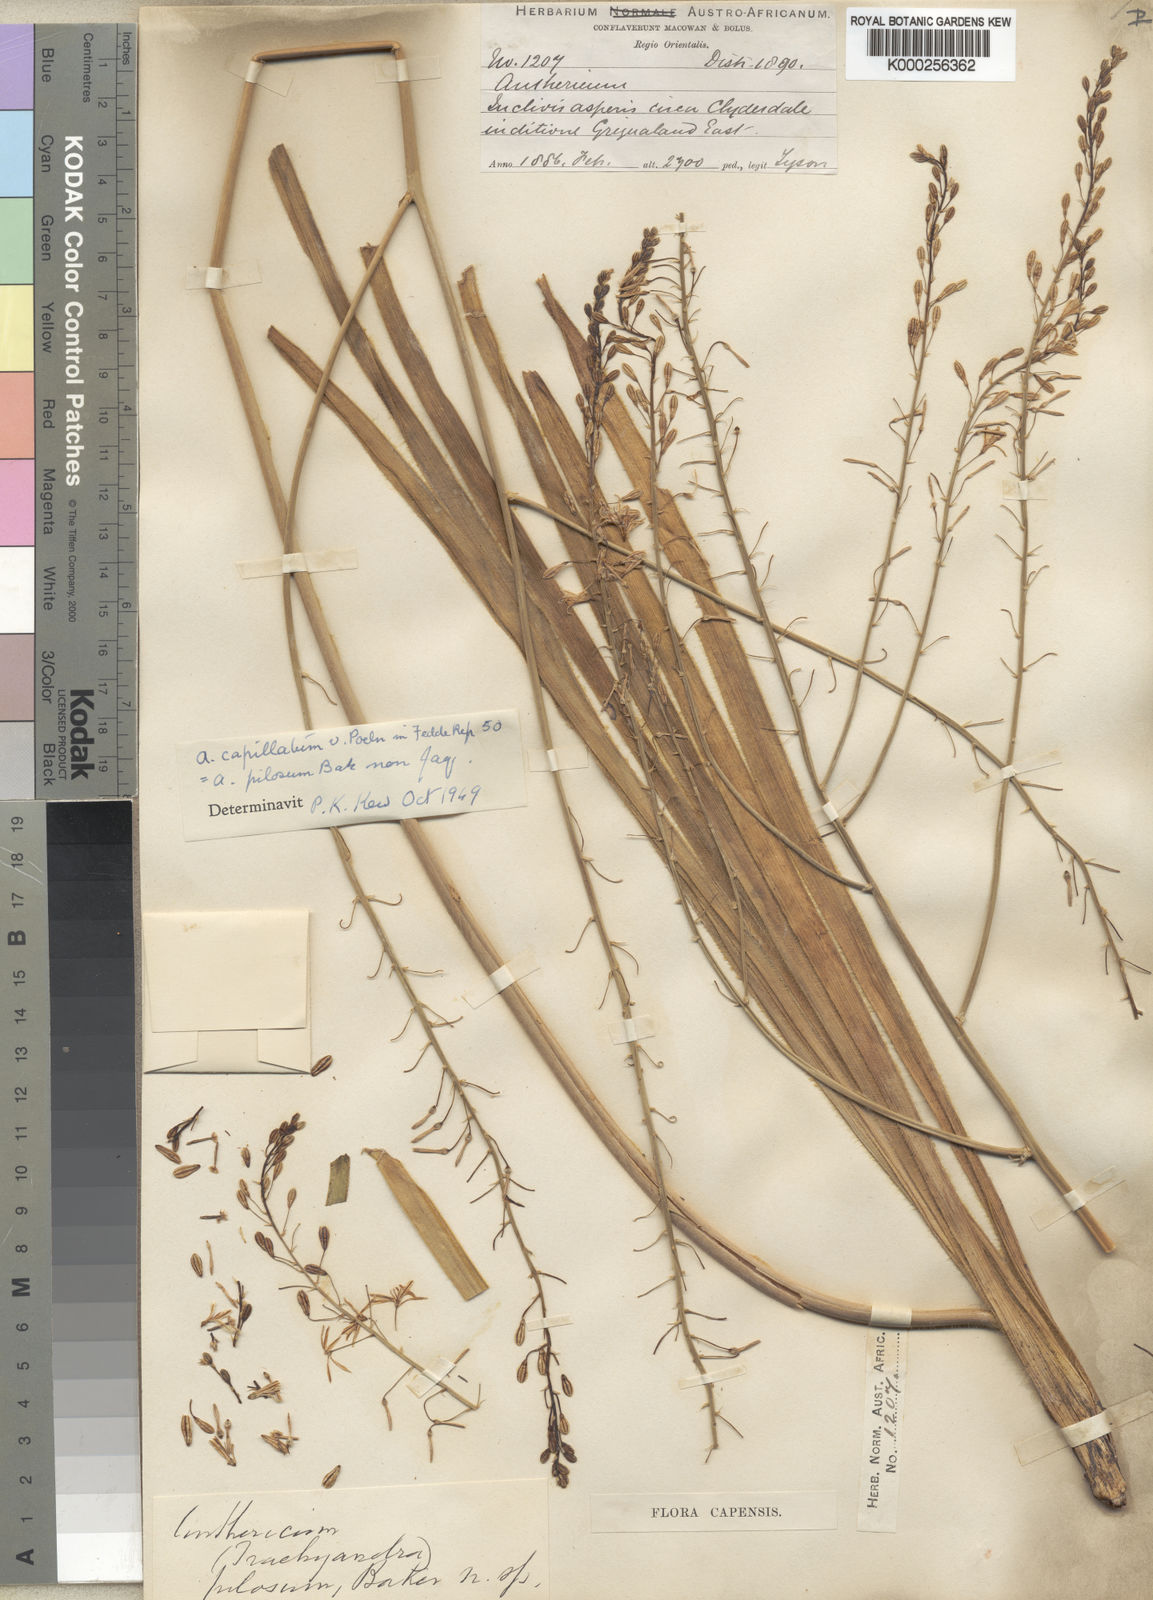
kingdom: Plantae
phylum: Tracheophyta
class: Liliopsida
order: Asparagales
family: Asphodelaceae
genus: Trachyandra
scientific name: Trachyandra capillata
